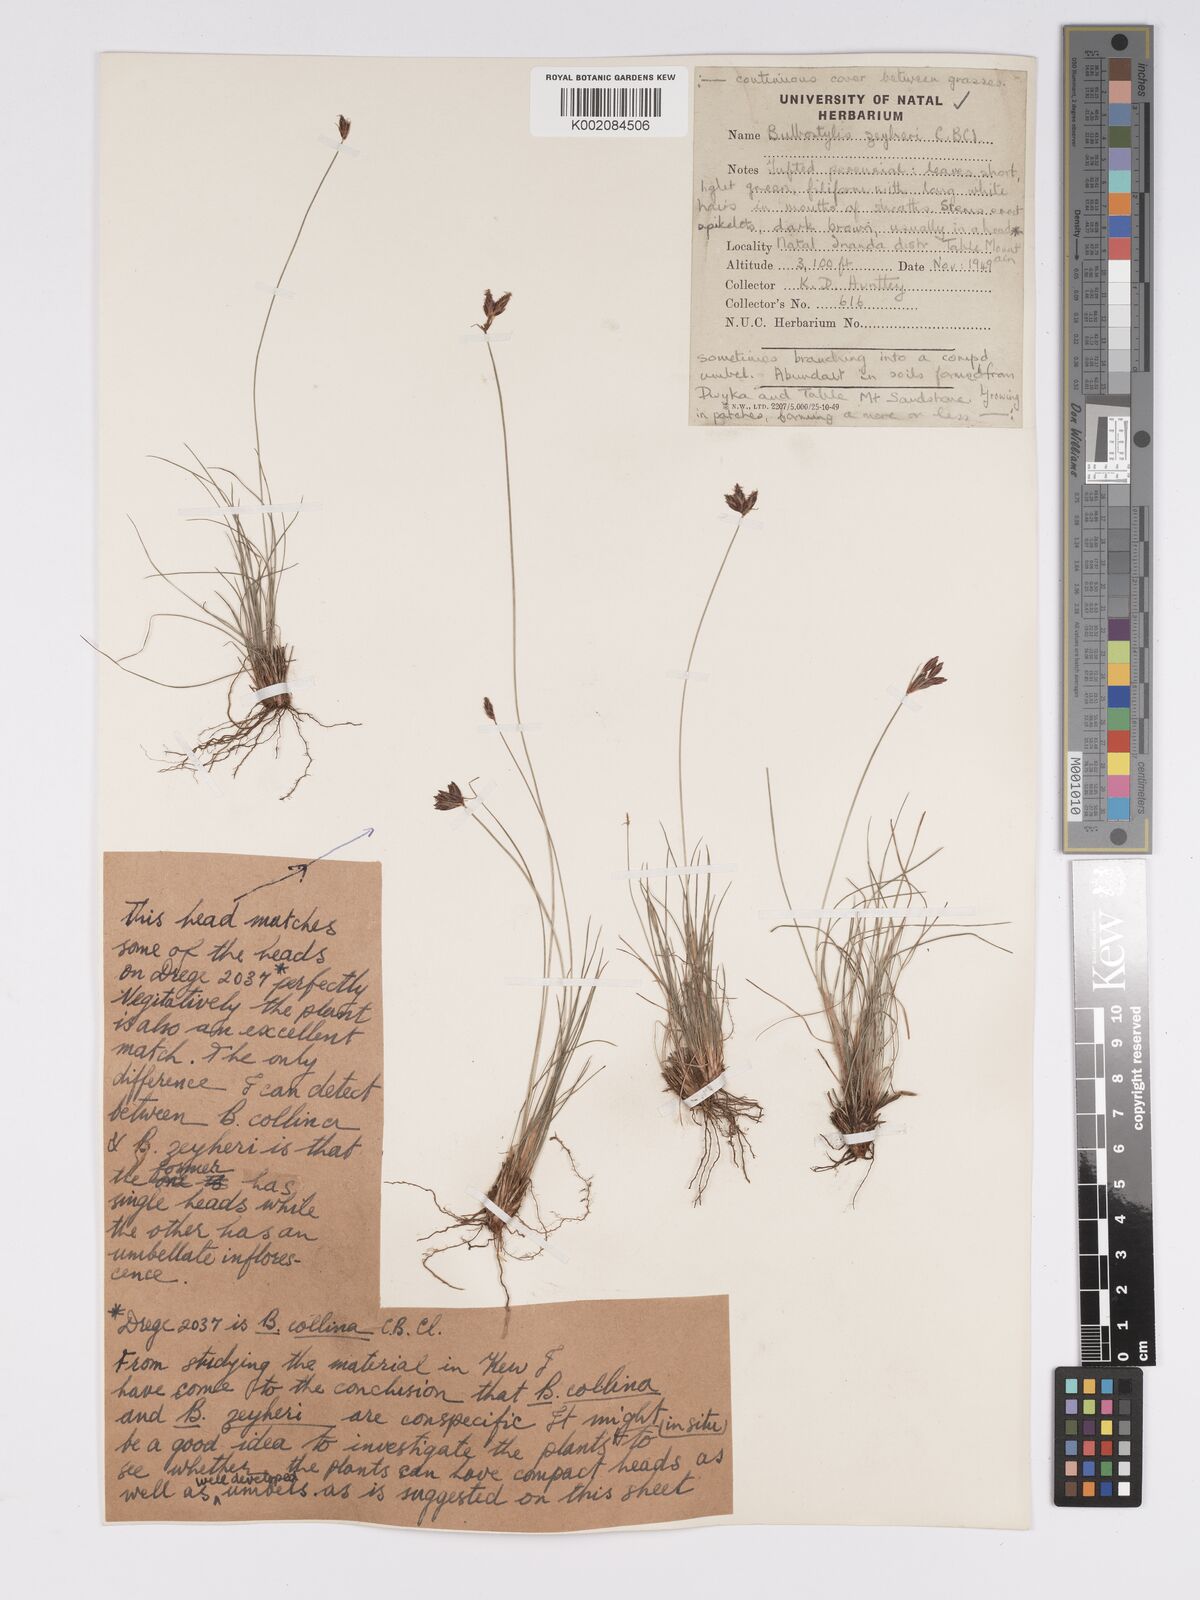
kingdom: Plantae
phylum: Tracheophyta
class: Liliopsida
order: Poales
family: Cyperaceae
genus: Bulbostylis
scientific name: Bulbostylis contexta
